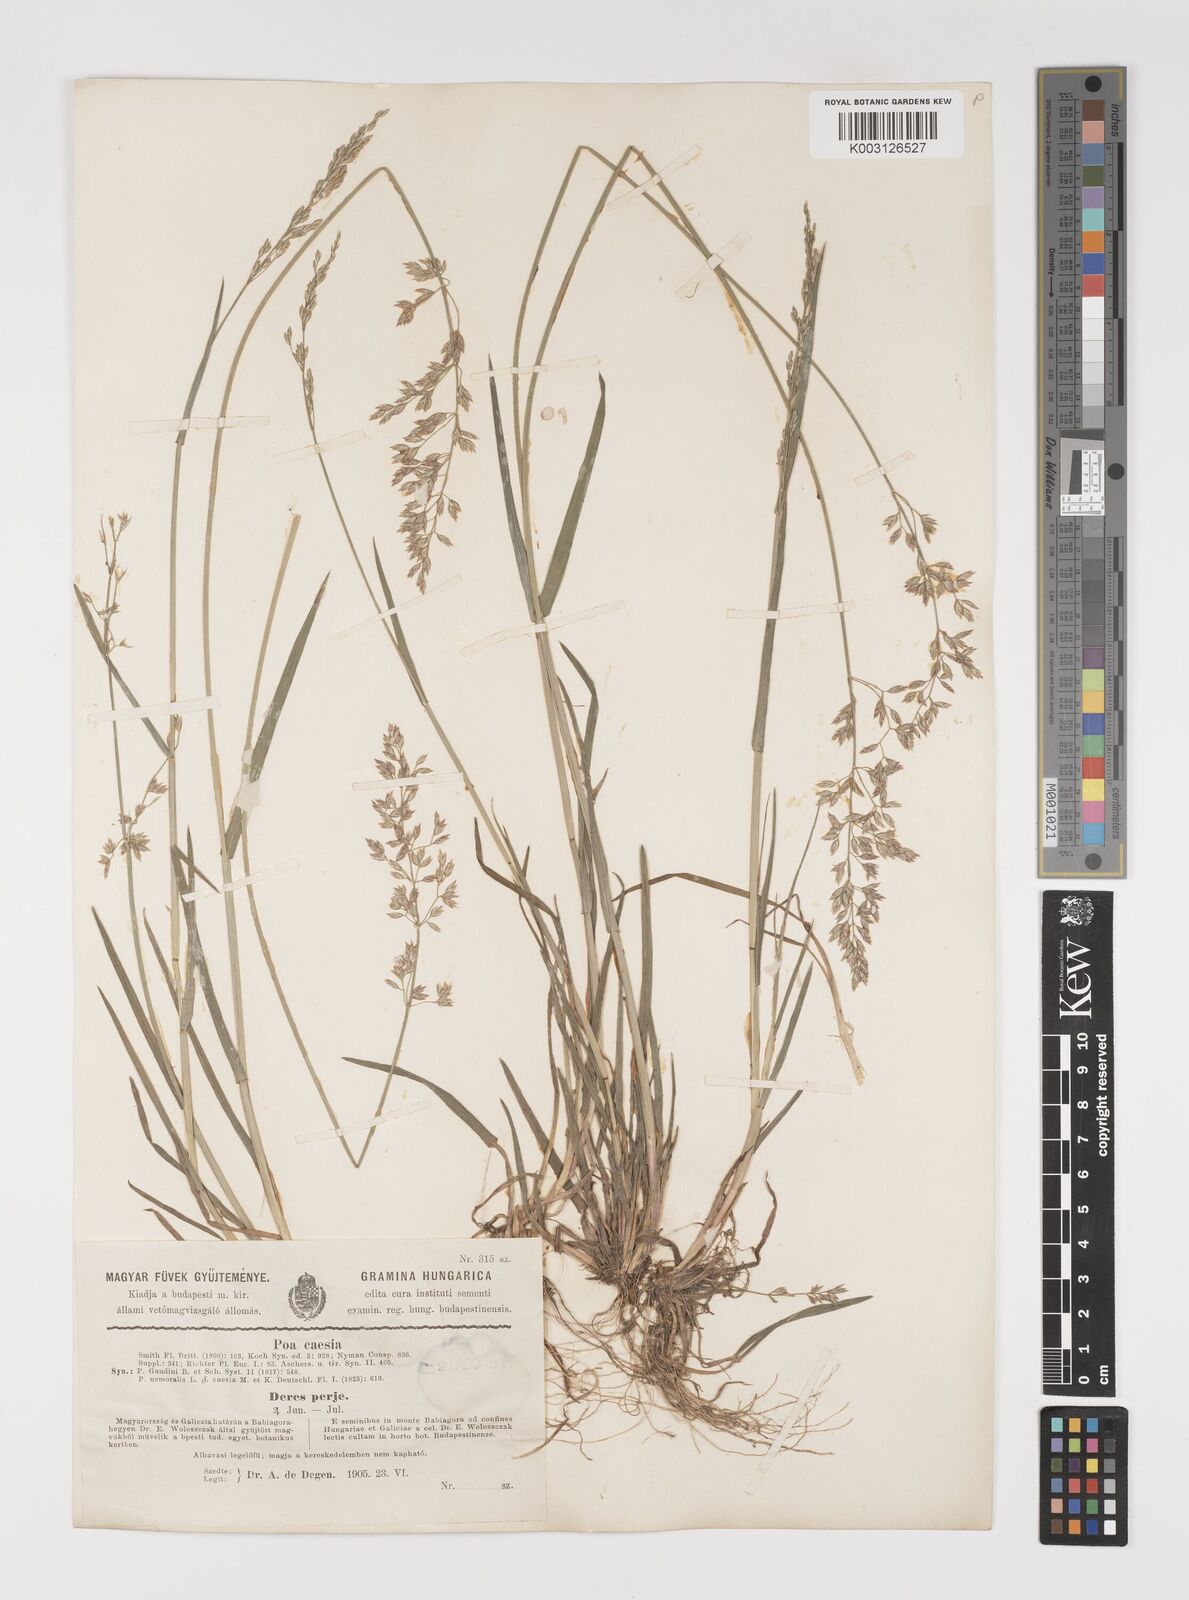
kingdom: Plantae
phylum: Tracheophyta
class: Liliopsida
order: Poales
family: Poaceae
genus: Poa
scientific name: Poa nemoralis
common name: Wood bluegrass
